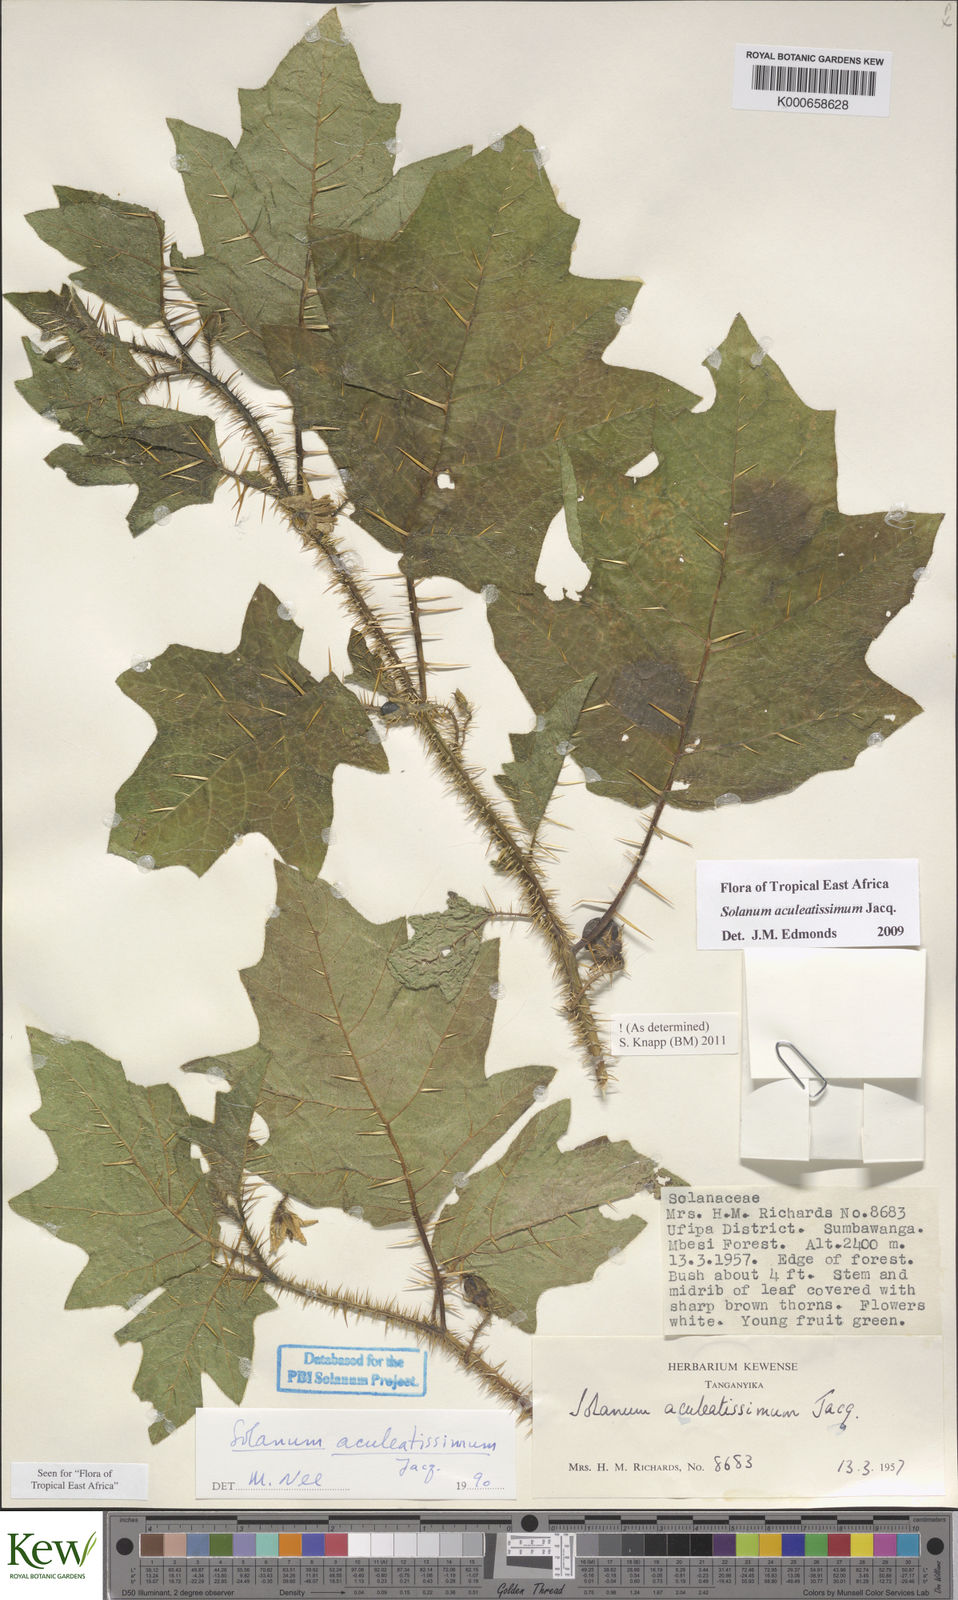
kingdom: Plantae
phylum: Tracheophyta
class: Magnoliopsida
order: Solanales
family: Solanaceae
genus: Solanum
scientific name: Solanum aculeatissimum
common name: Dutch eggplant
